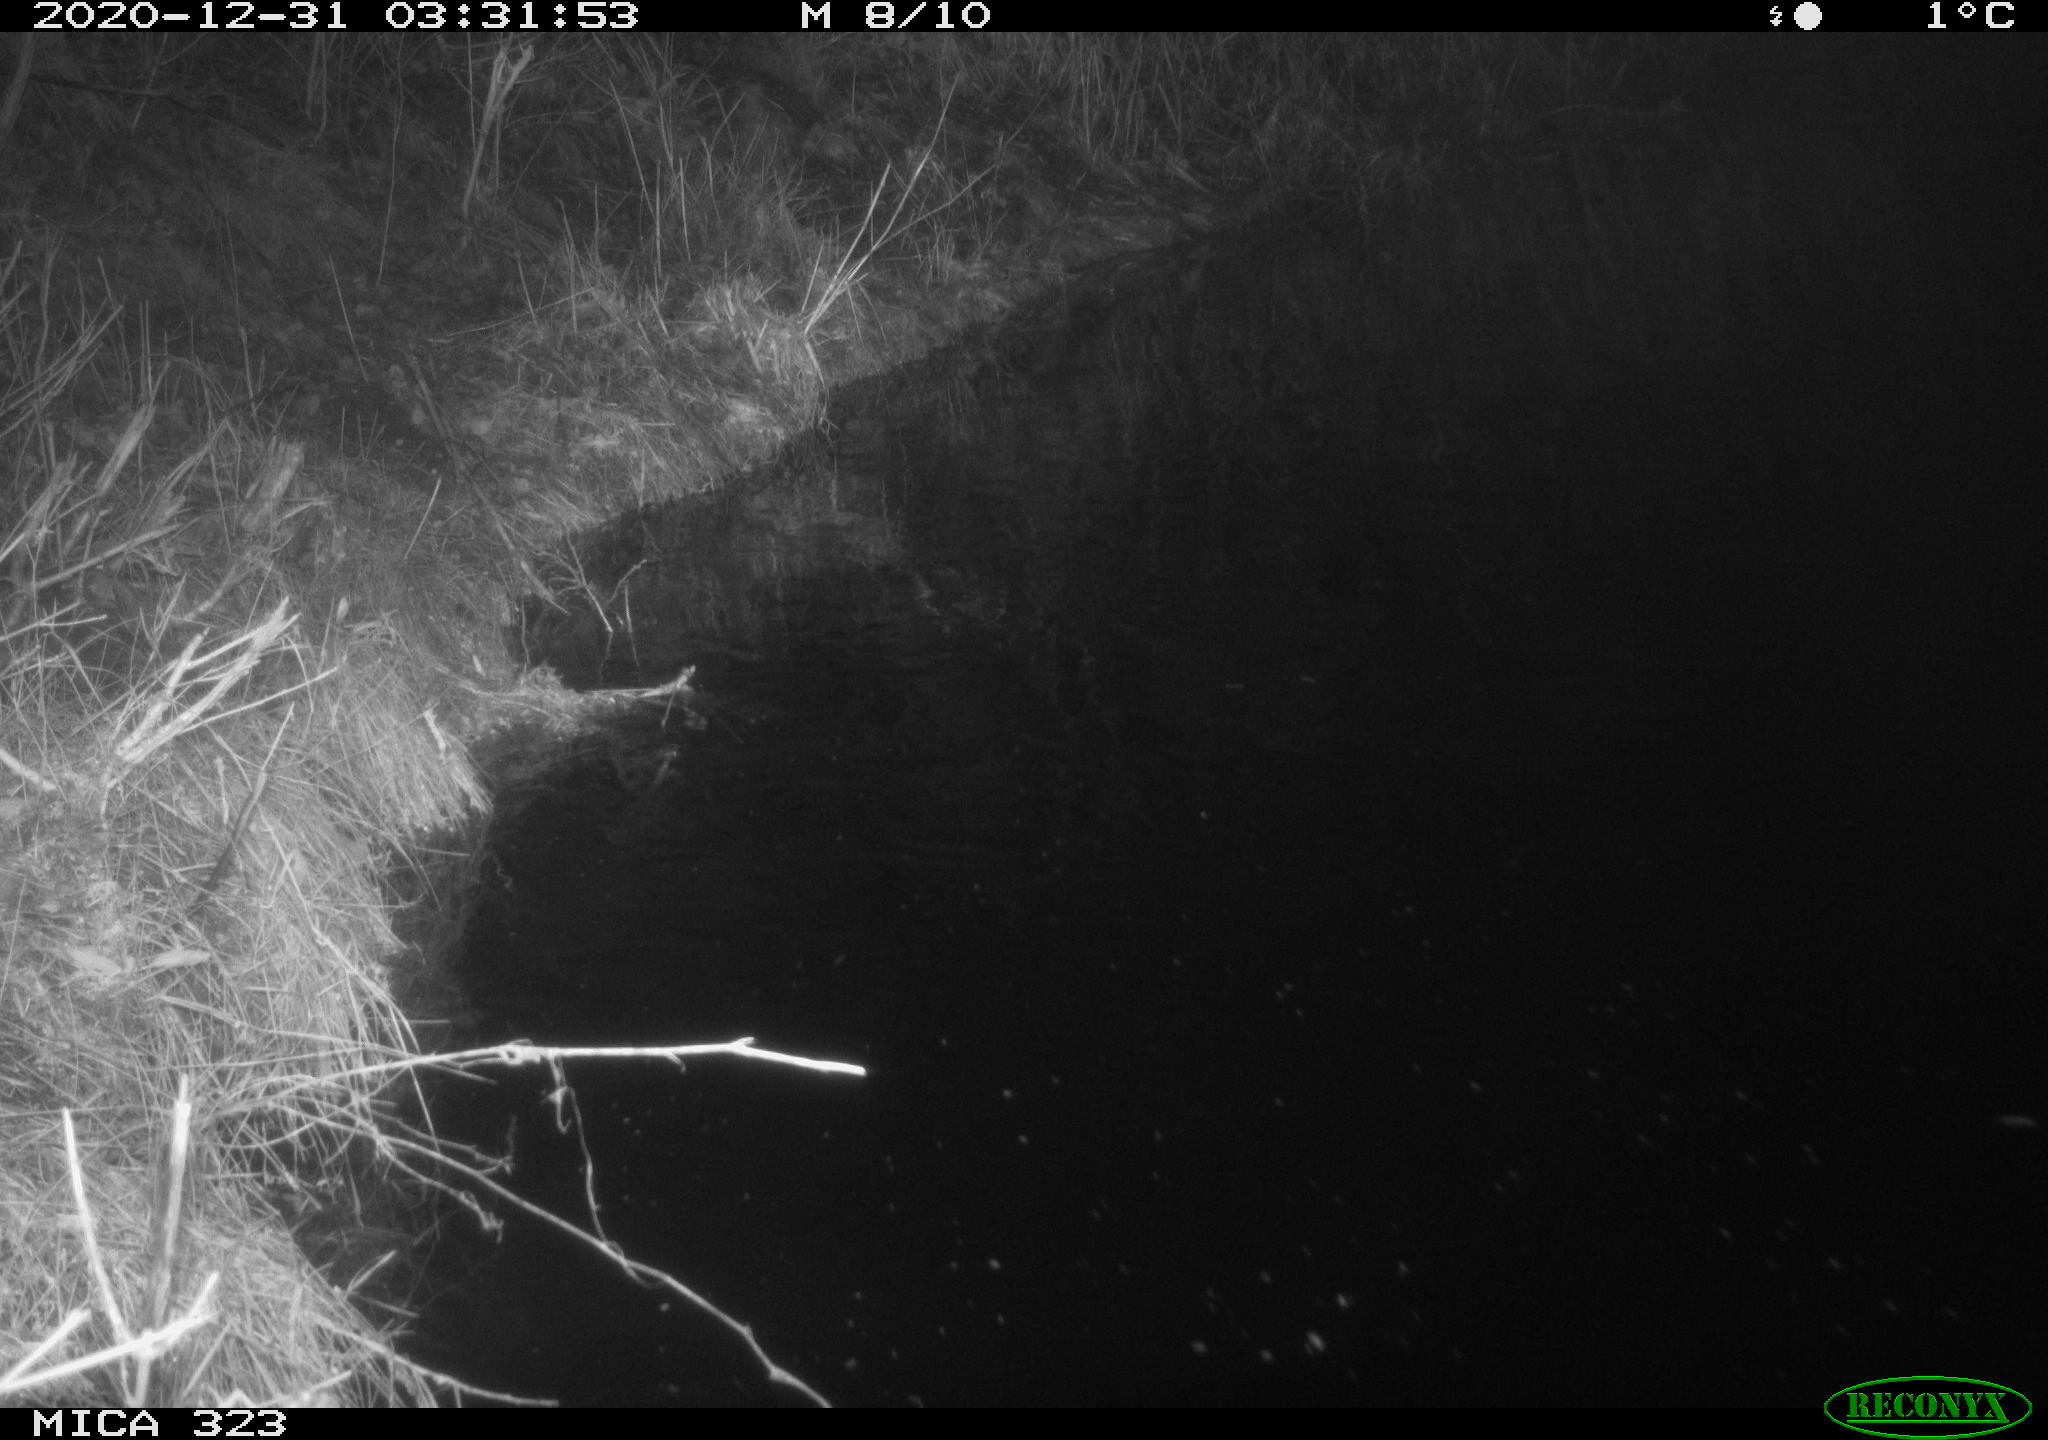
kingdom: Animalia
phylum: Chordata
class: Mammalia
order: Rodentia
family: Myocastoridae
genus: Myocastor
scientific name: Myocastor coypus
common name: Coypu
